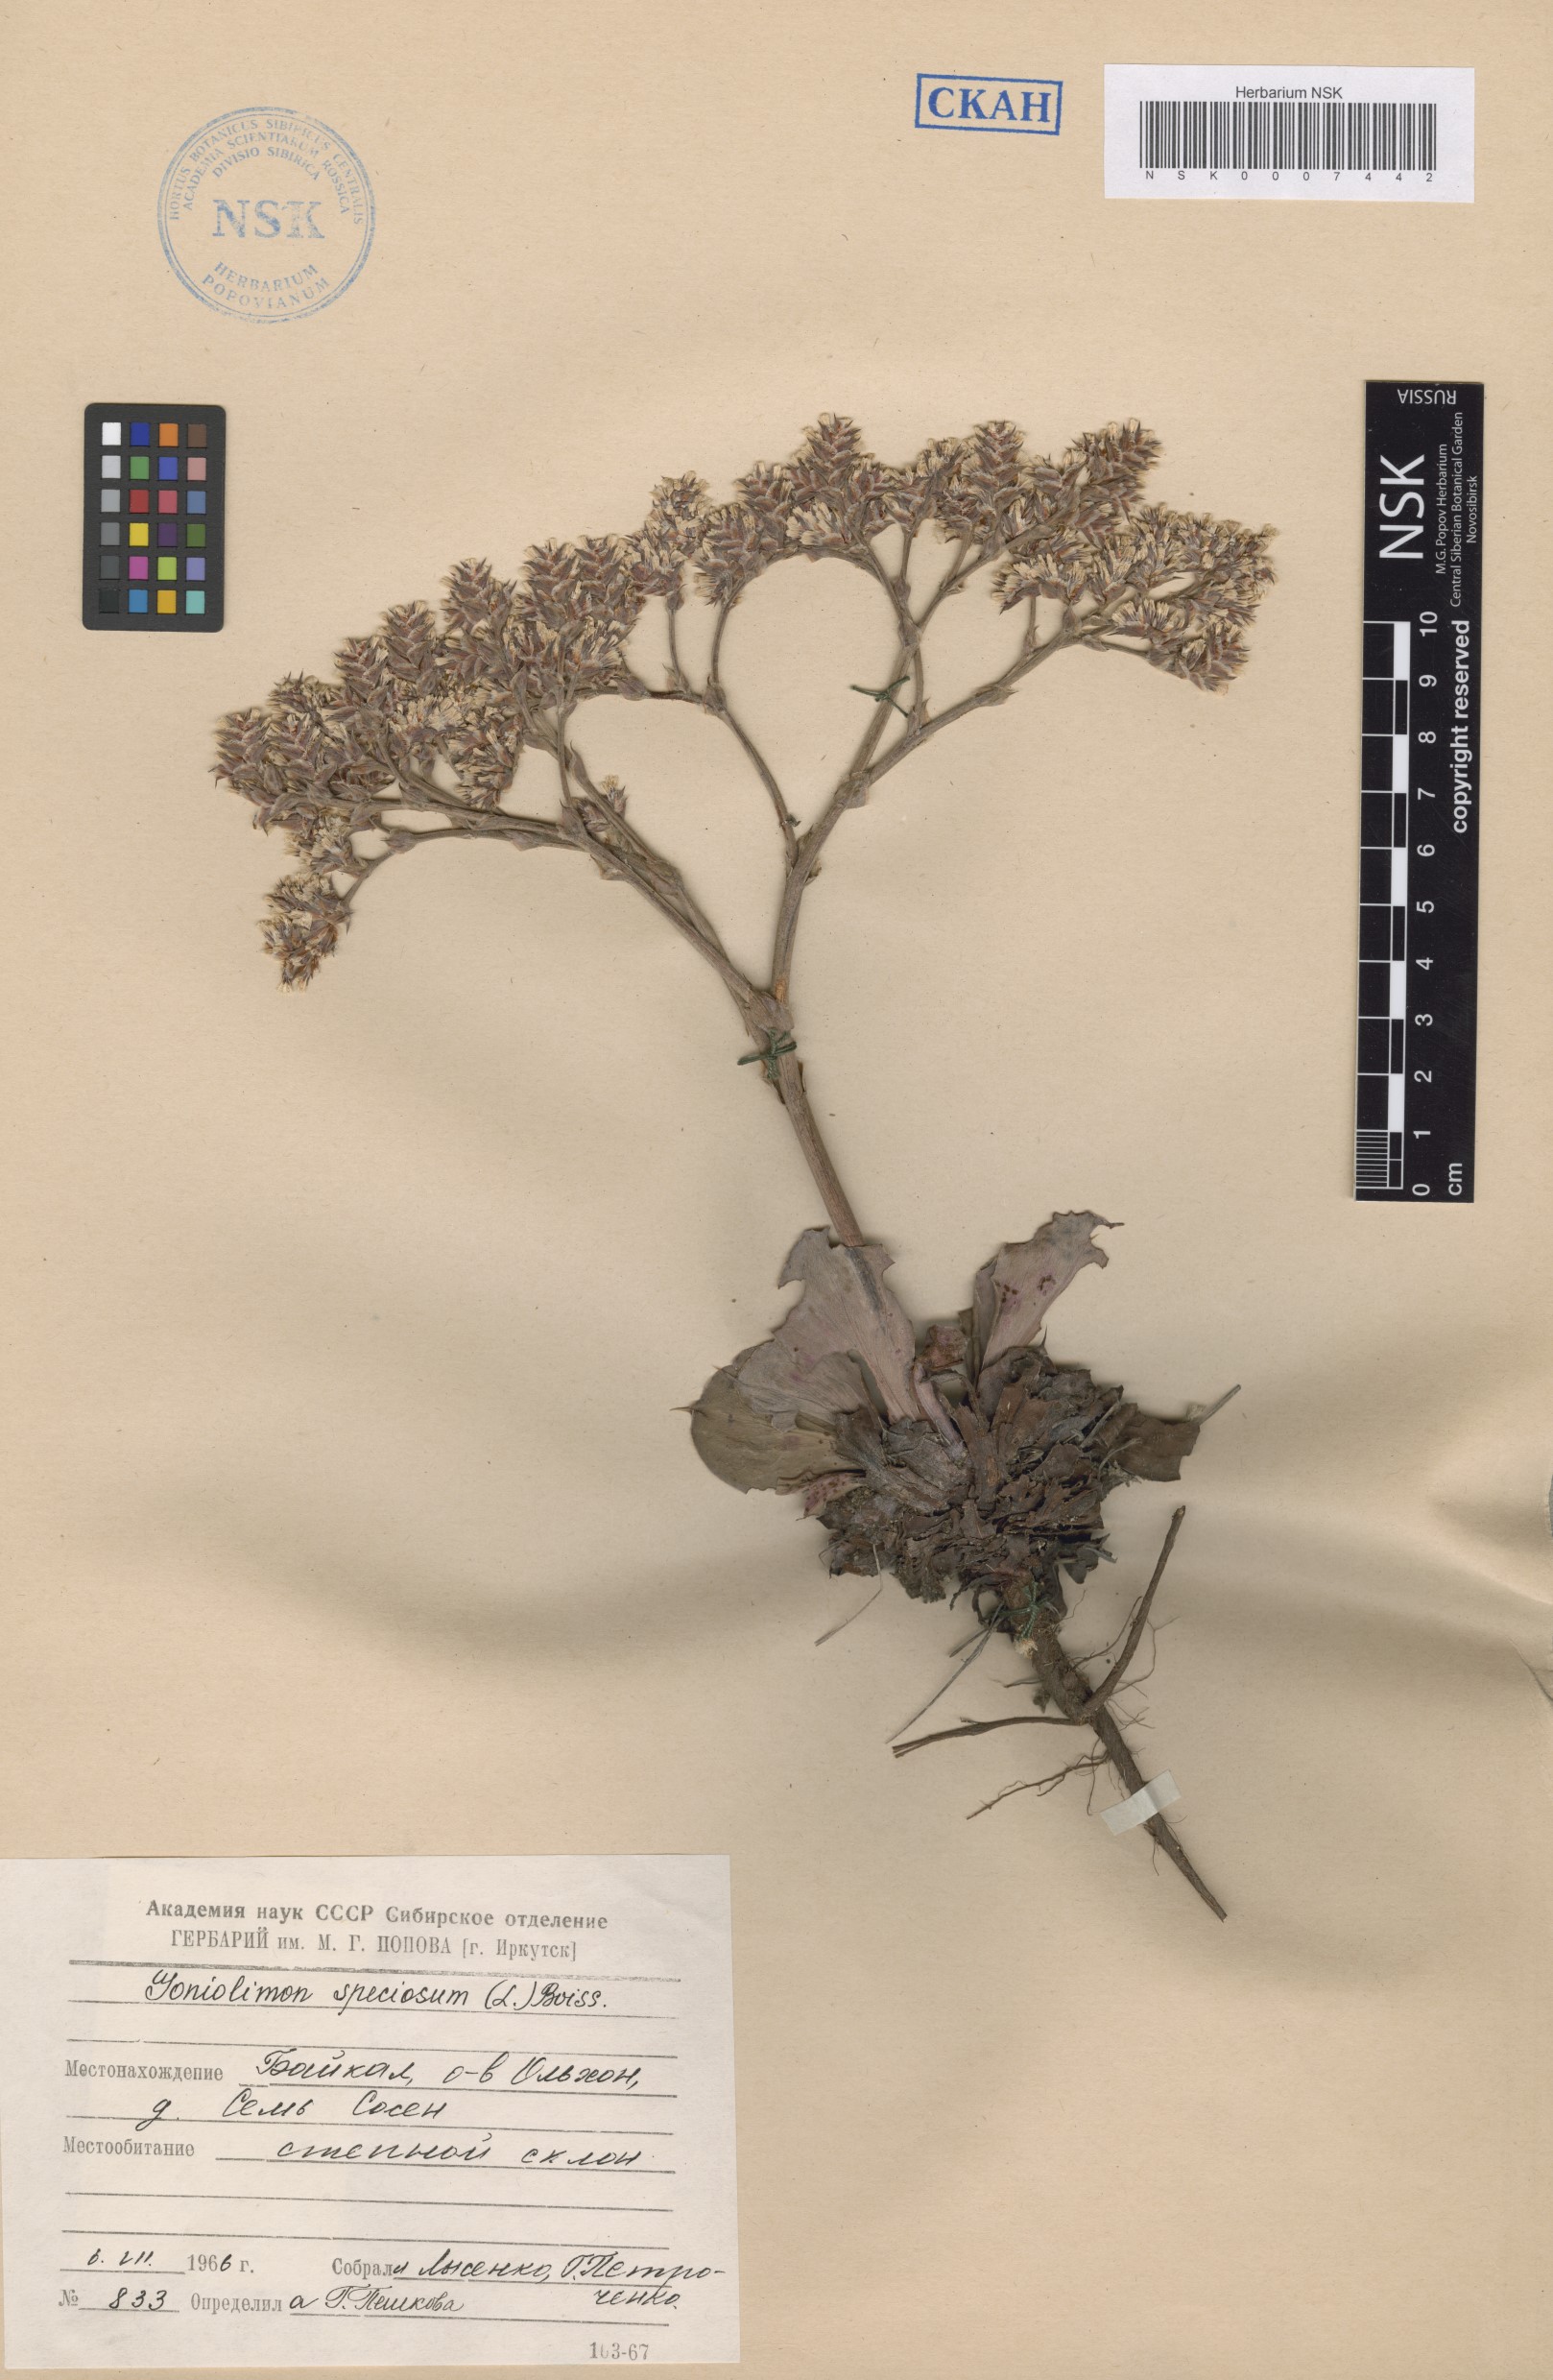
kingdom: Plantae
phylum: Tracheophyta
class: Magnoliopsida
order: Caryophyllales
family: Plumbaginaceae
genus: Goniolimon
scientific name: Goniolimon speciosum
